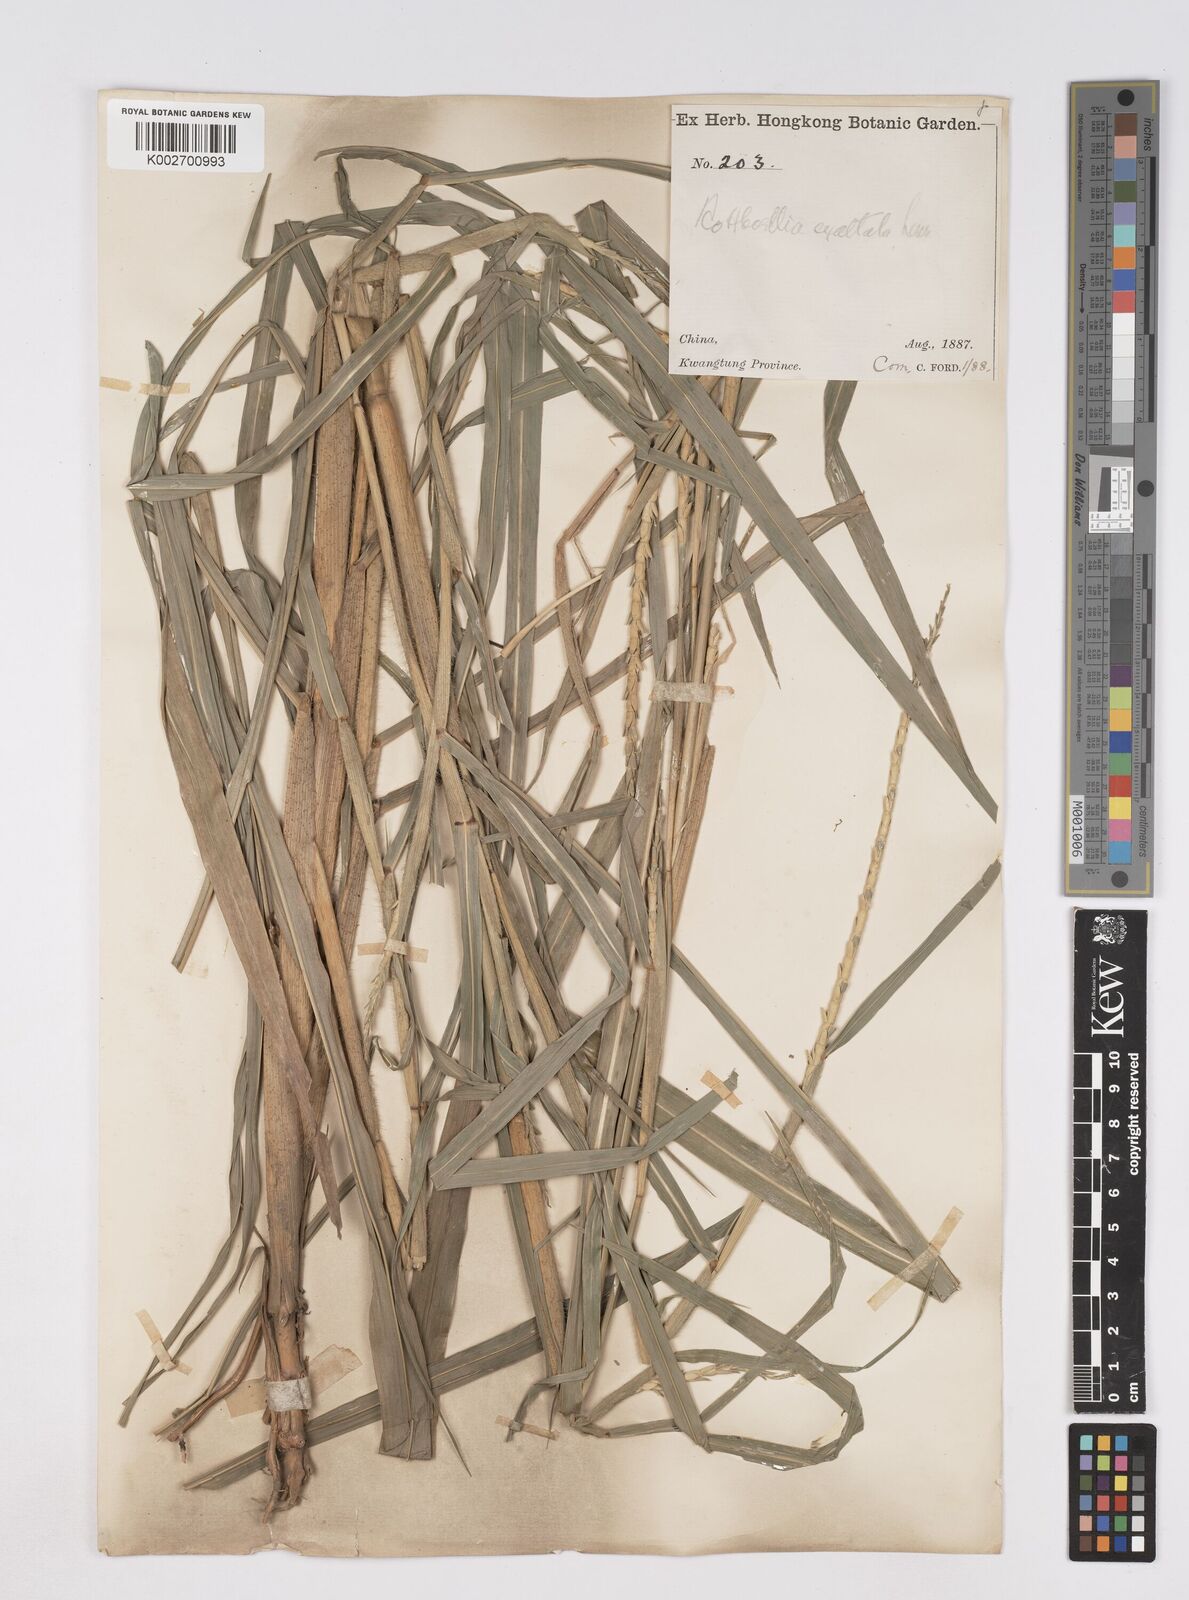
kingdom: Plantae
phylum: Tracheophyta
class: Liliopsida
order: Poales
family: Poaceae
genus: Ophiuros
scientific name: Ophiuros exaltatus
